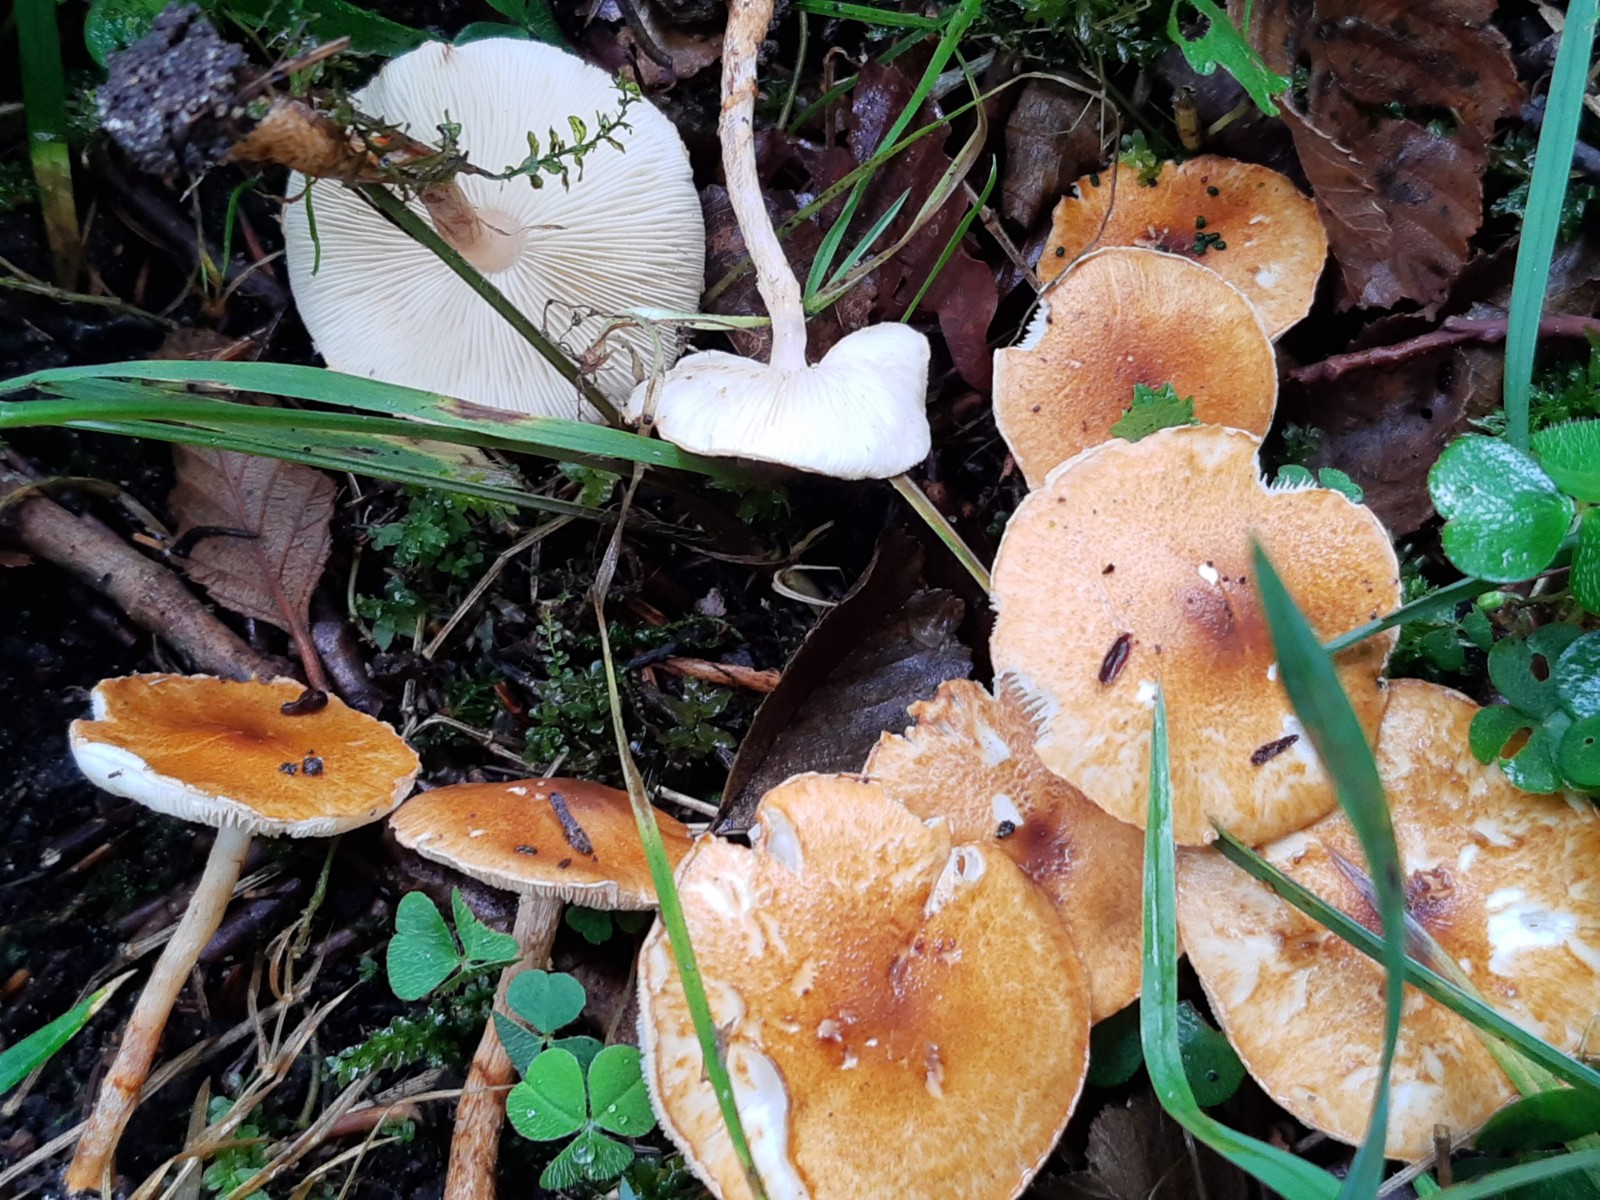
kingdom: Fungi
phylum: Basidiomycota
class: Agaricomycetes
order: Agaricales
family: Agaricaceae
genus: Lepiota
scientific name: Lepiota castanea
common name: kastaniebrun parasolhat
